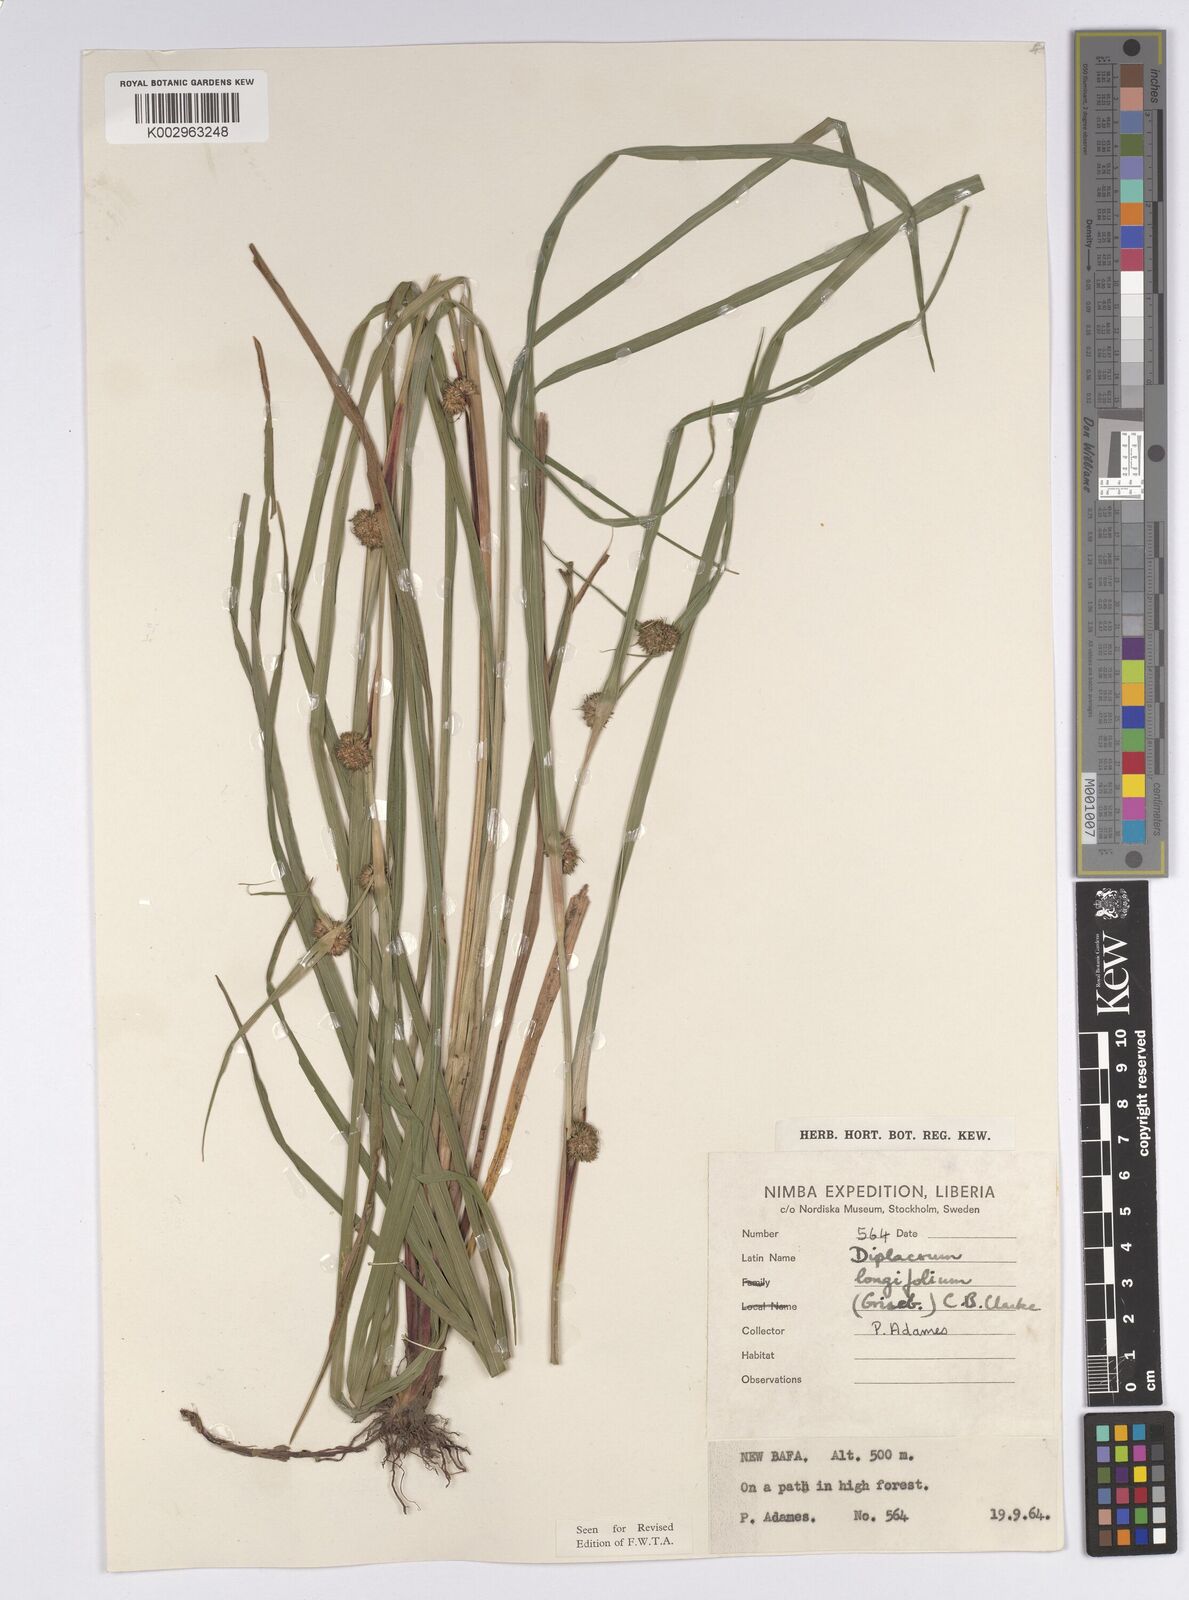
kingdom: Plantae
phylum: Tracheophyta
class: Liliopsida
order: Poales
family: Cyperaceae
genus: Diplacrum
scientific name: Diplacrum capitatum
